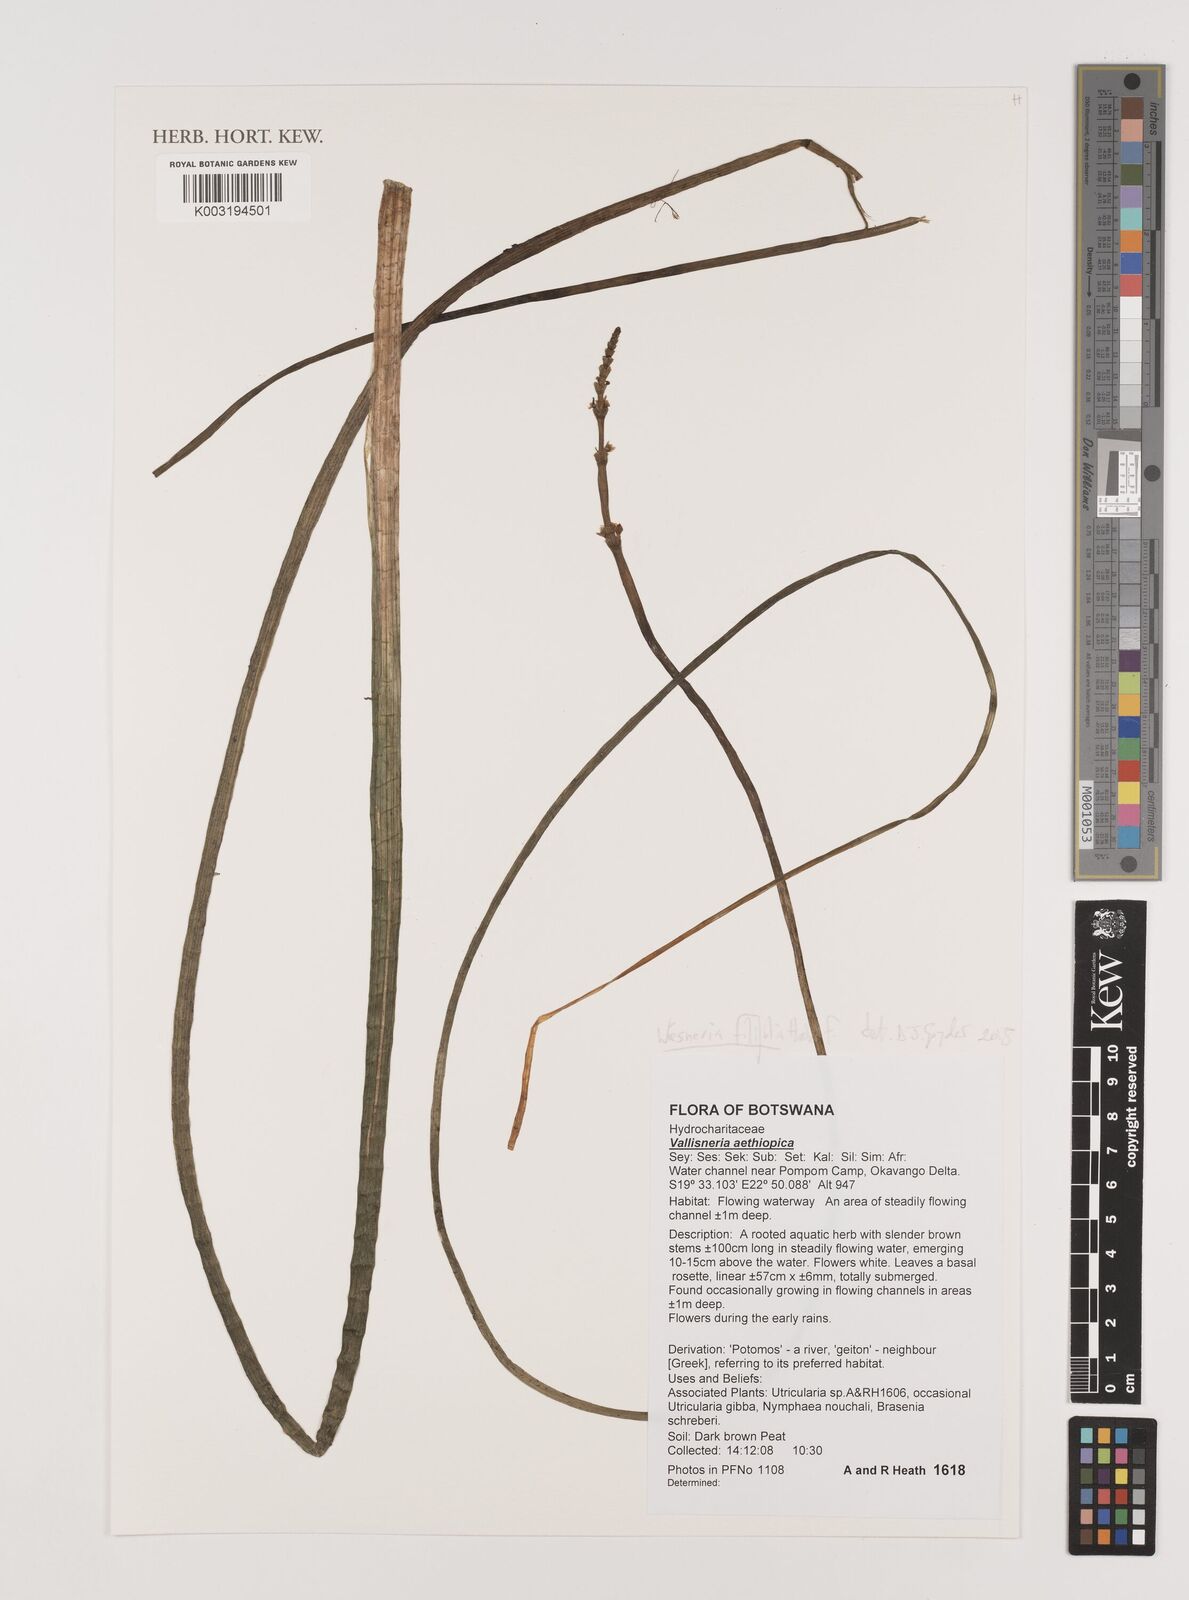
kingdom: Plantae
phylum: Tracheophyta
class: Liliopsida
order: Alismatales
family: Alismataceae
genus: Wiesneria
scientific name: Wiesneria filifolia
